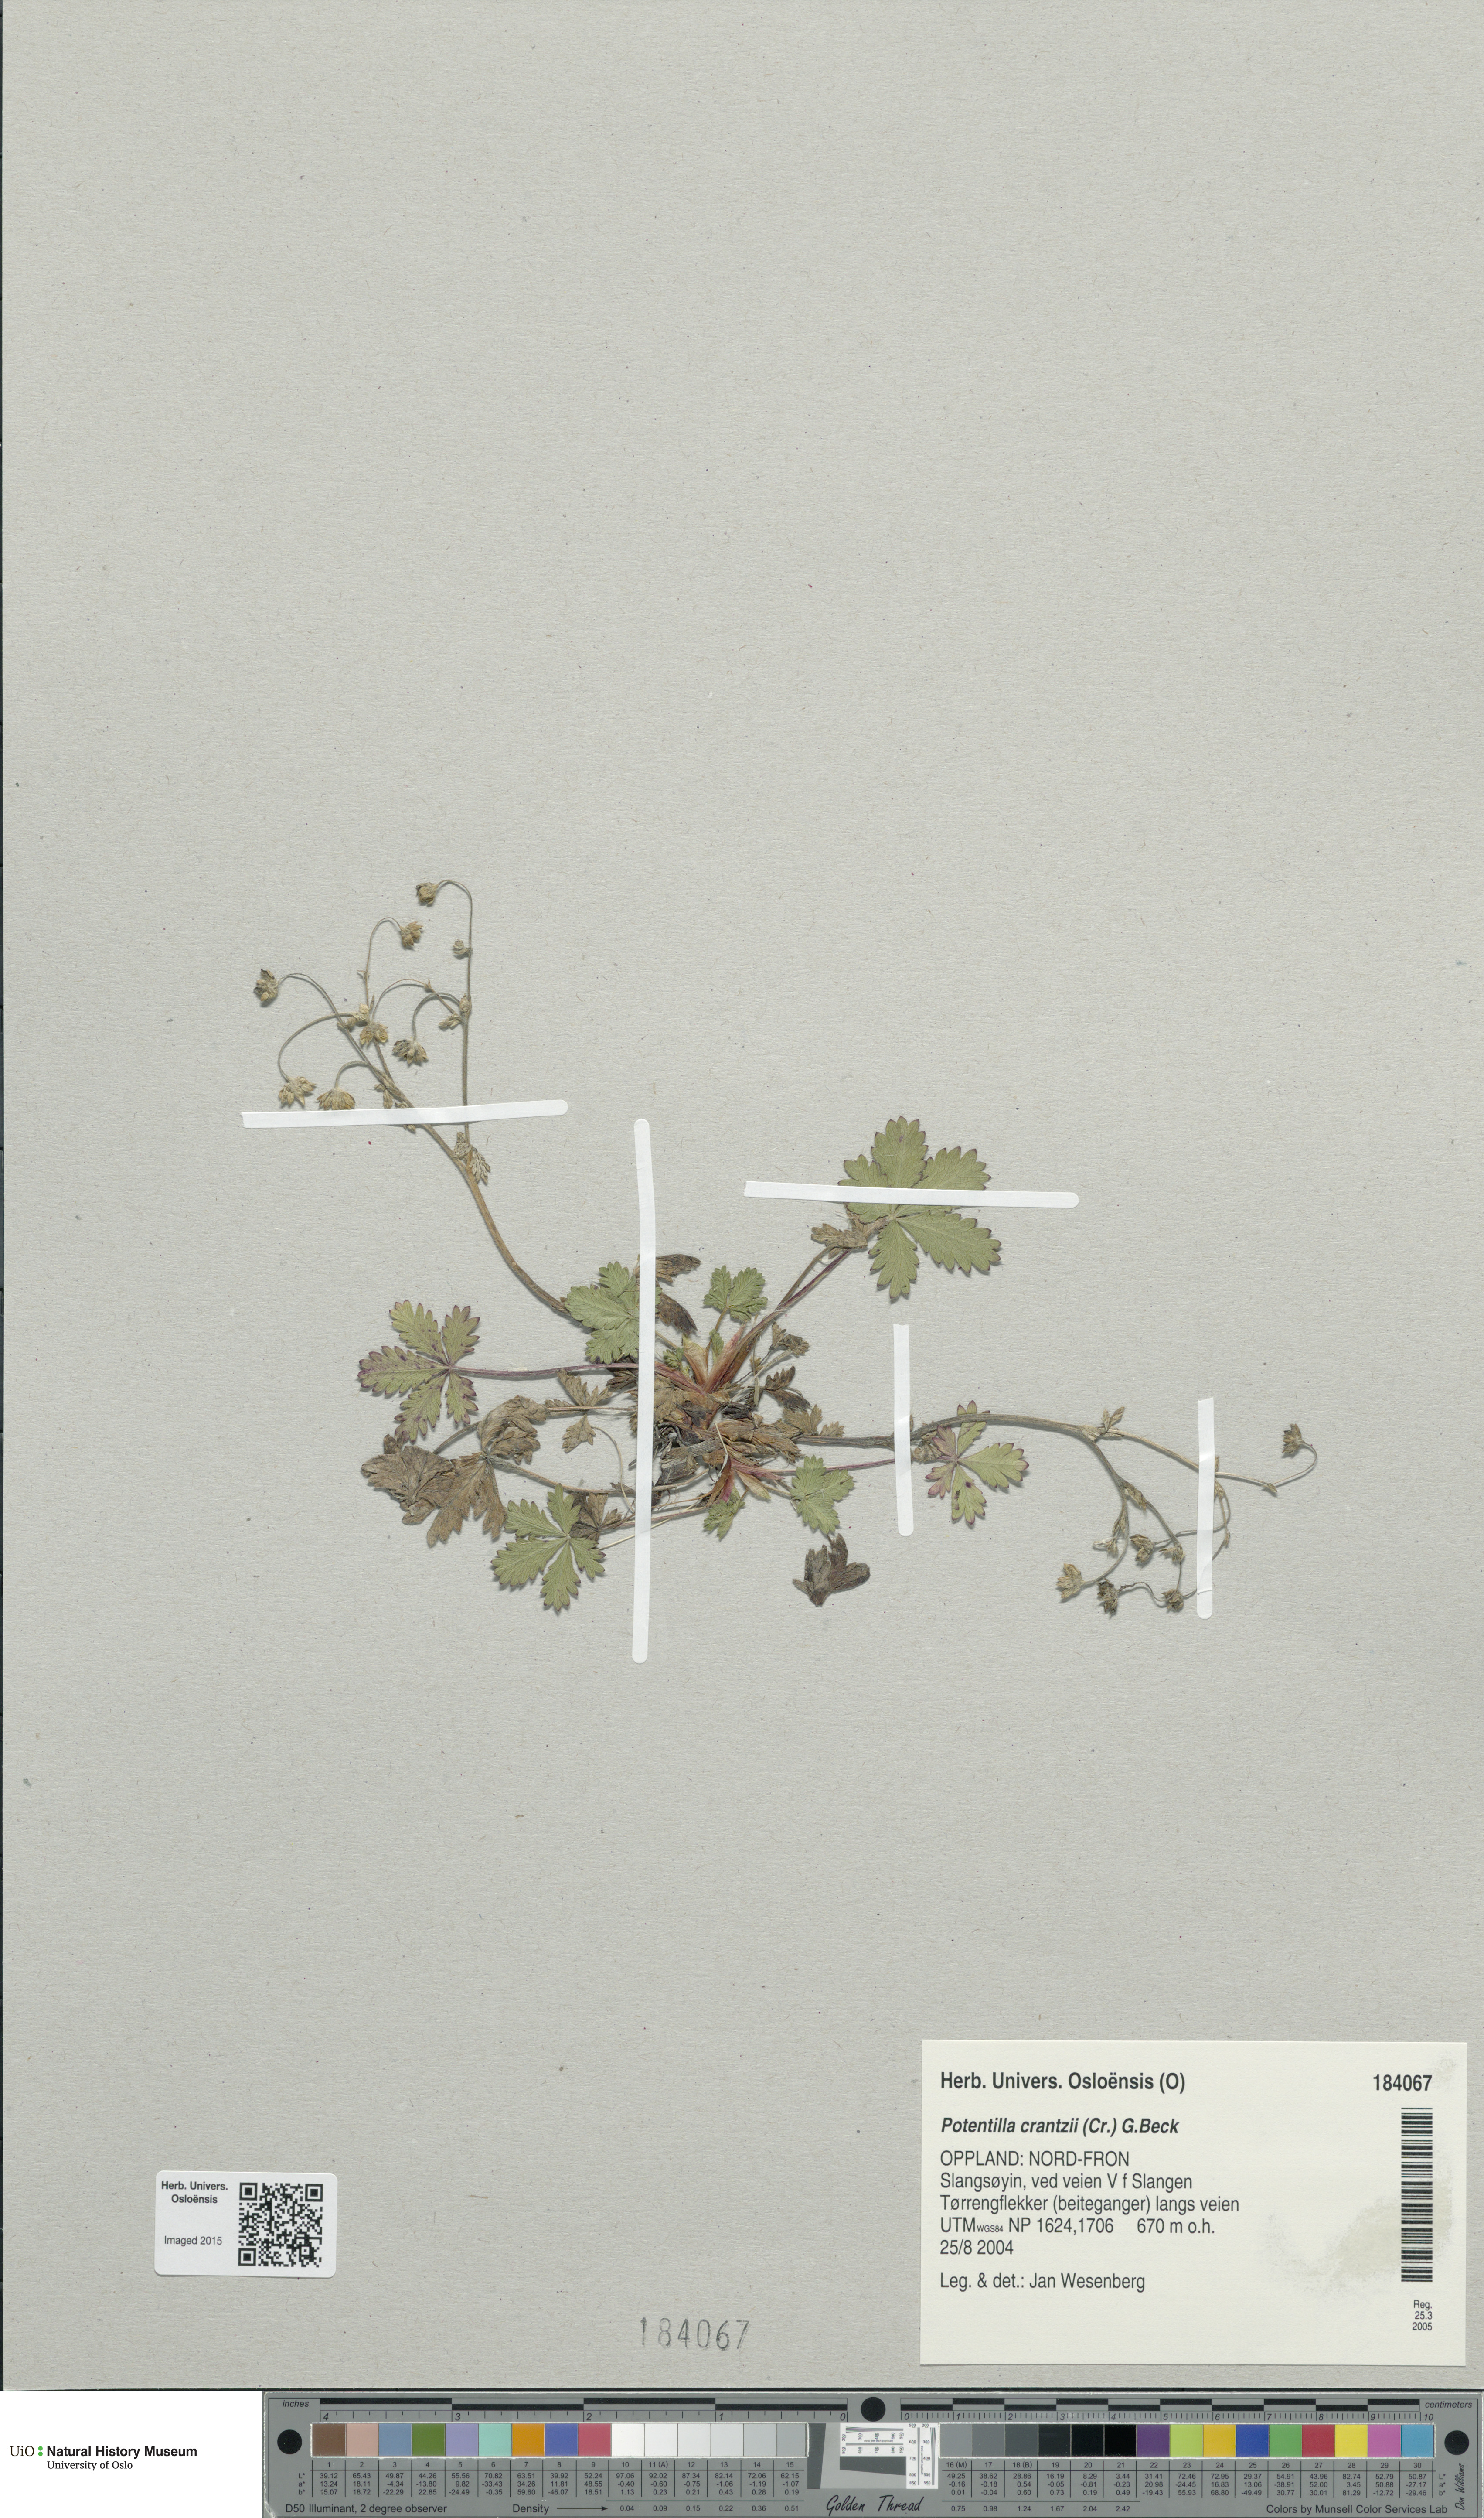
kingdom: Plantae
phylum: Tracheophyta
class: Magnoliopsida
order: Rosales
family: Rosaceae
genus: Potentilla
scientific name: Potentilla crantzii
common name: Alpine cinquefoil
